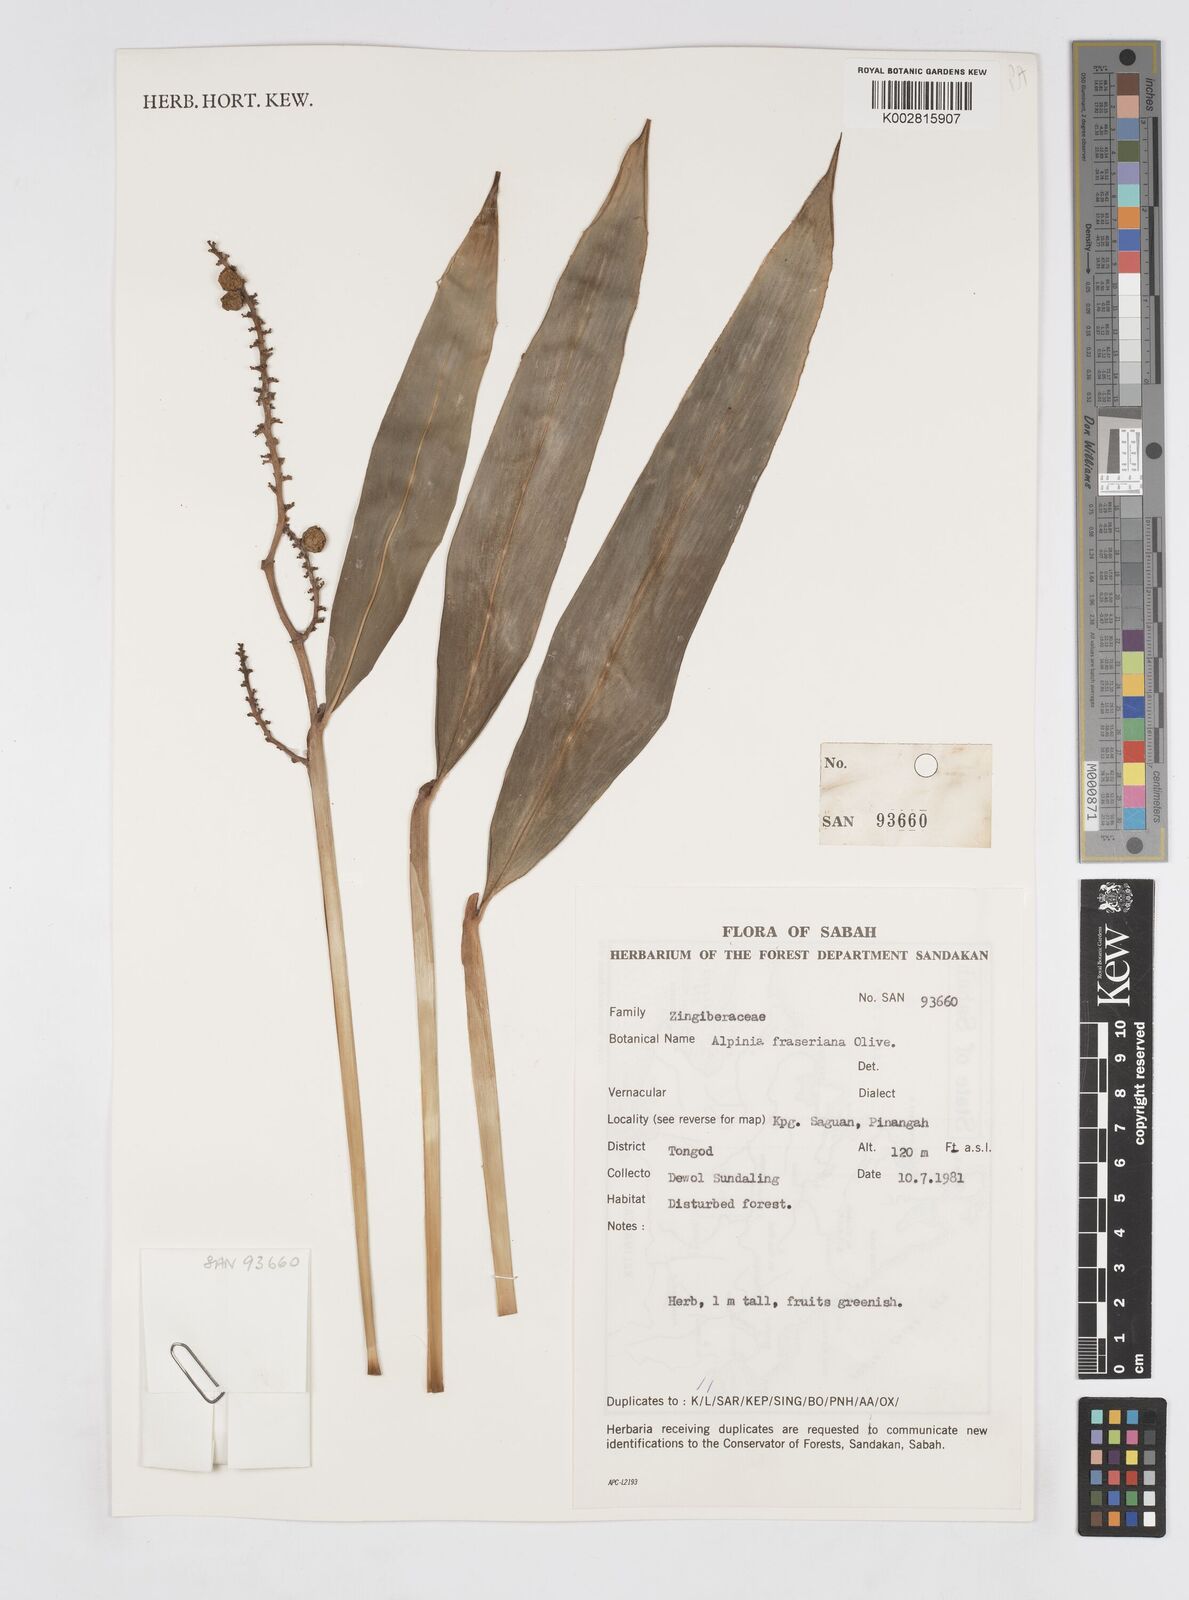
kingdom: Plantae
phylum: Tracheophyta
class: Liliopsida
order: Zingiberales
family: Zingiberaceae
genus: Alpinia
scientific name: Alpinia aquatica
